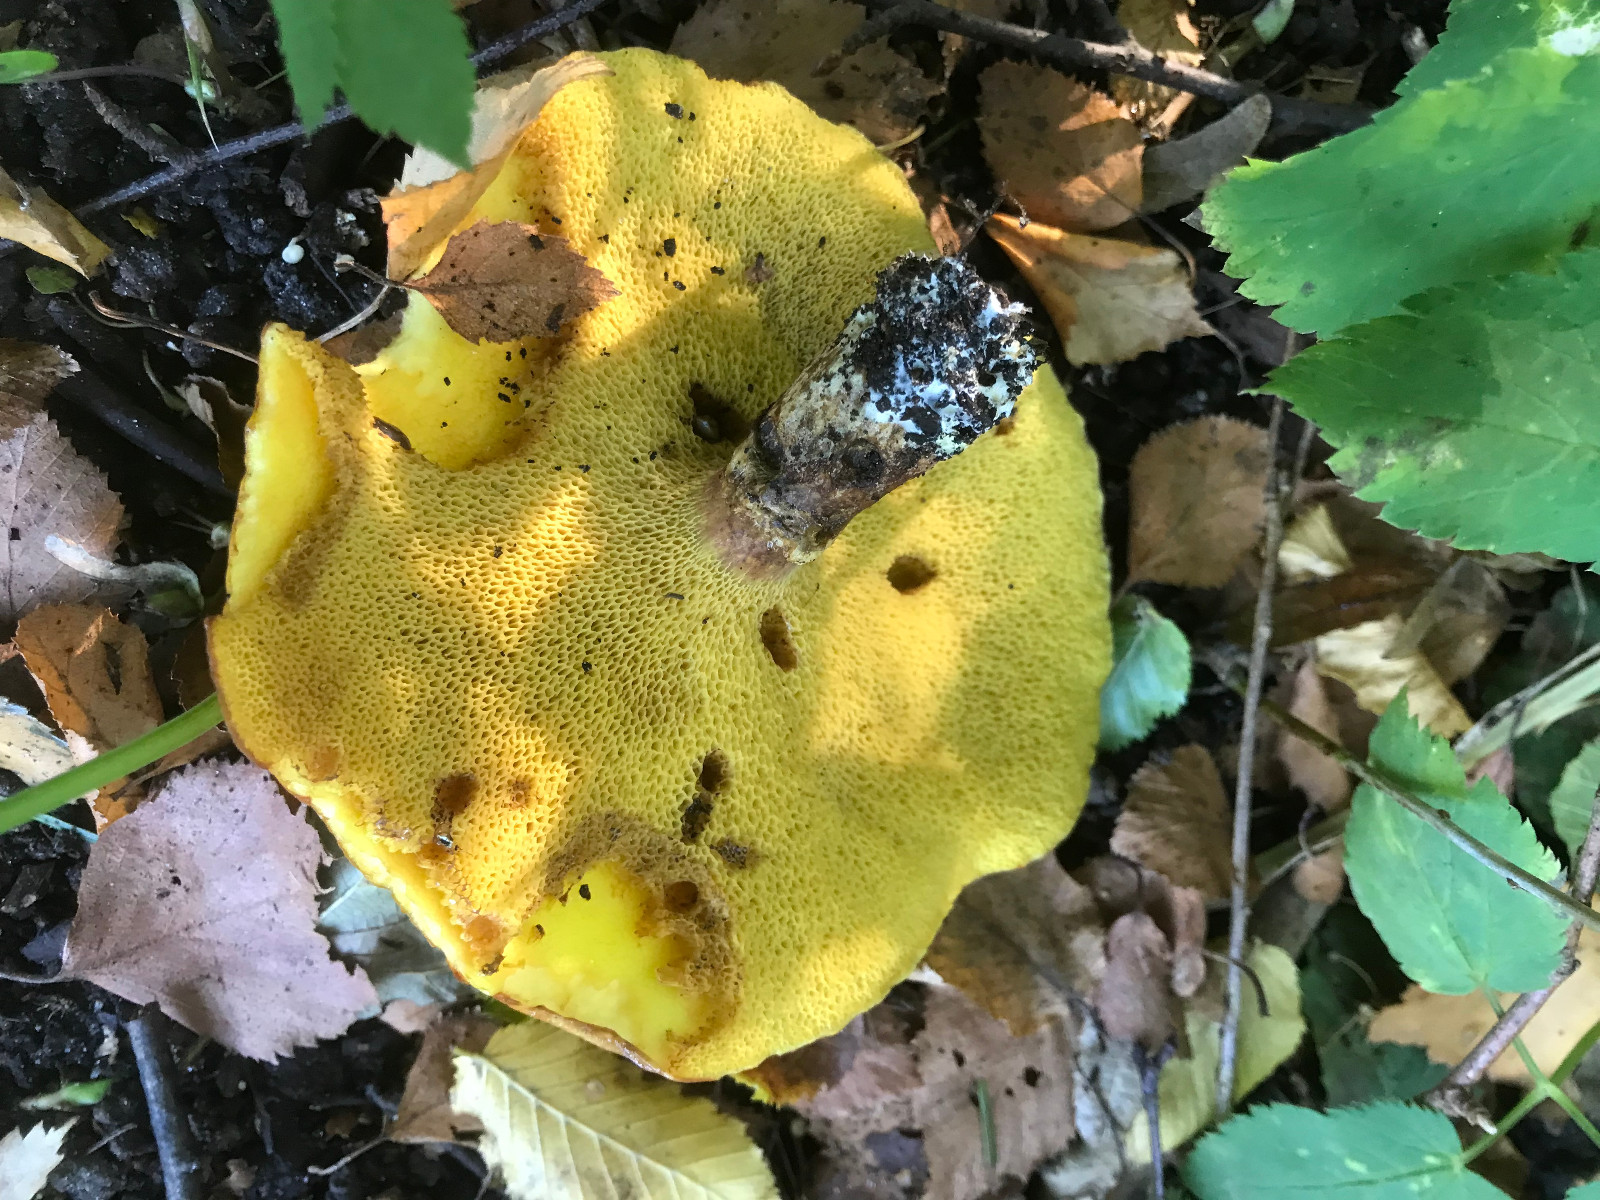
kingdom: Fungi
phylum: Basidiomycota
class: Agaricomycetes
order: Boletales
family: Suillaceae
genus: Suillus
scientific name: Suillus grevillei
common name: lærke-slimrørhat
